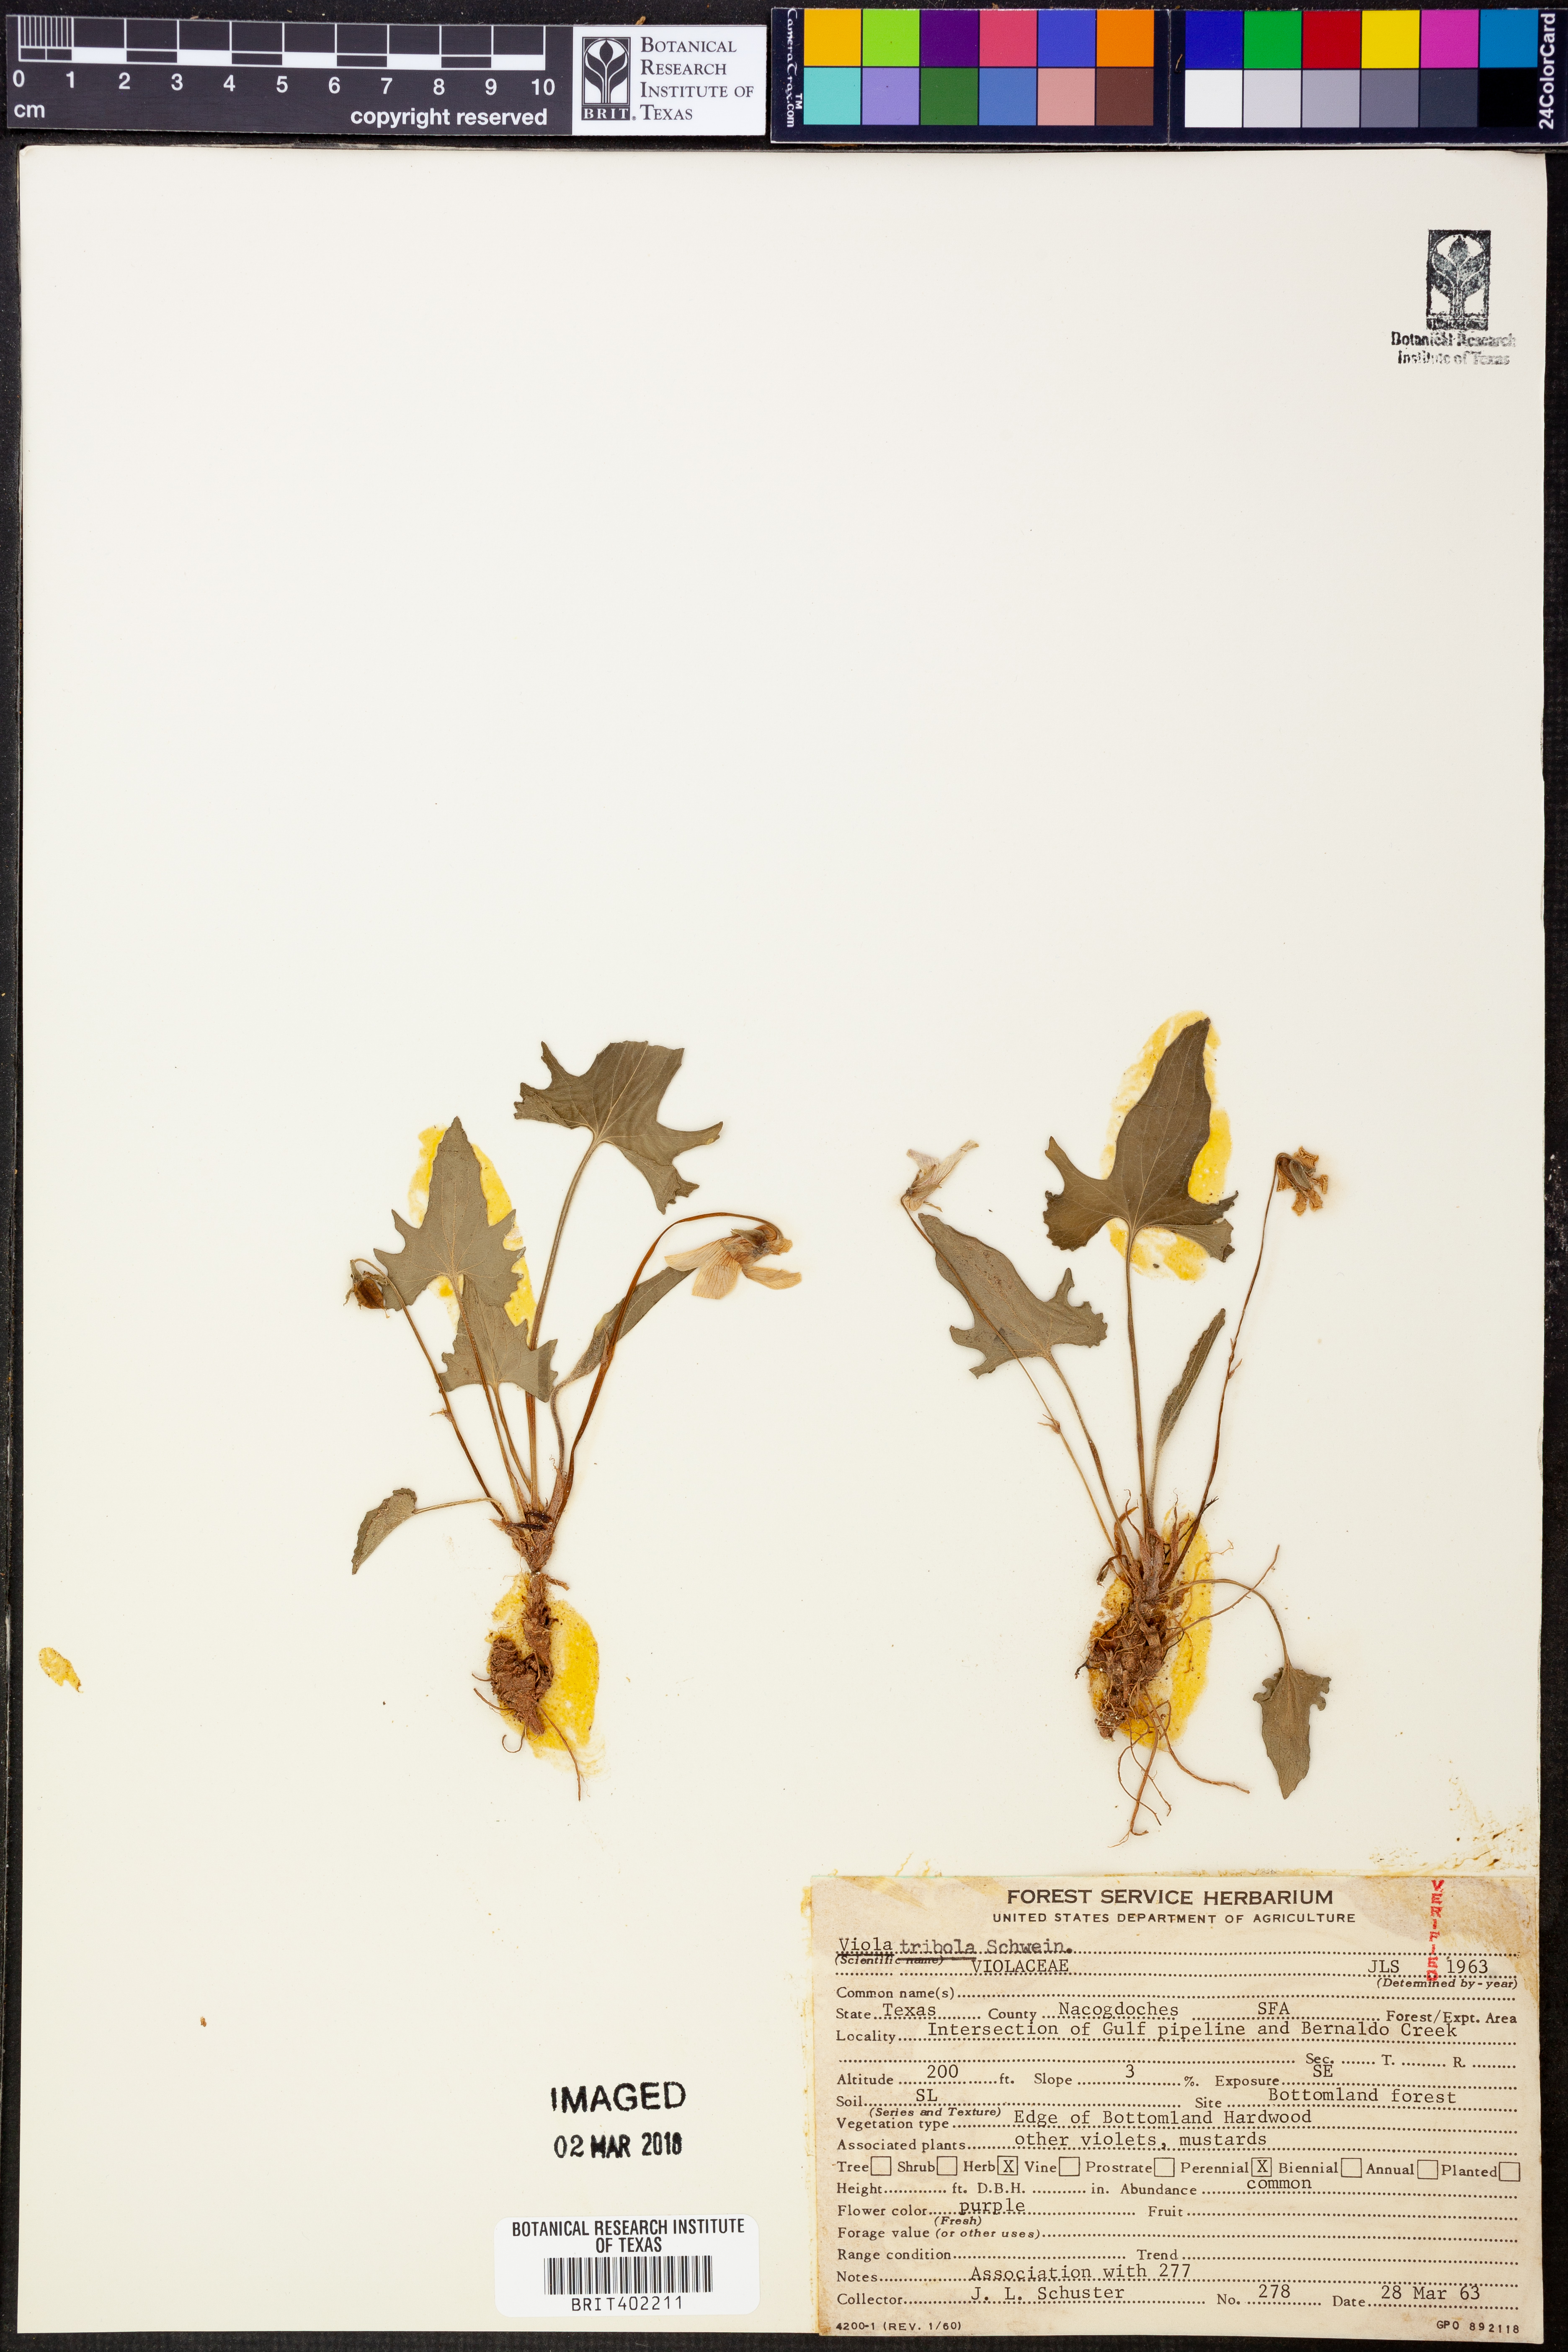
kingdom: Plantae
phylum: Tracheophyta
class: Magnoliopsida
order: Malpighiales
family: Violaceae
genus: Viola
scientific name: Viola palmata
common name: Early blue violet
